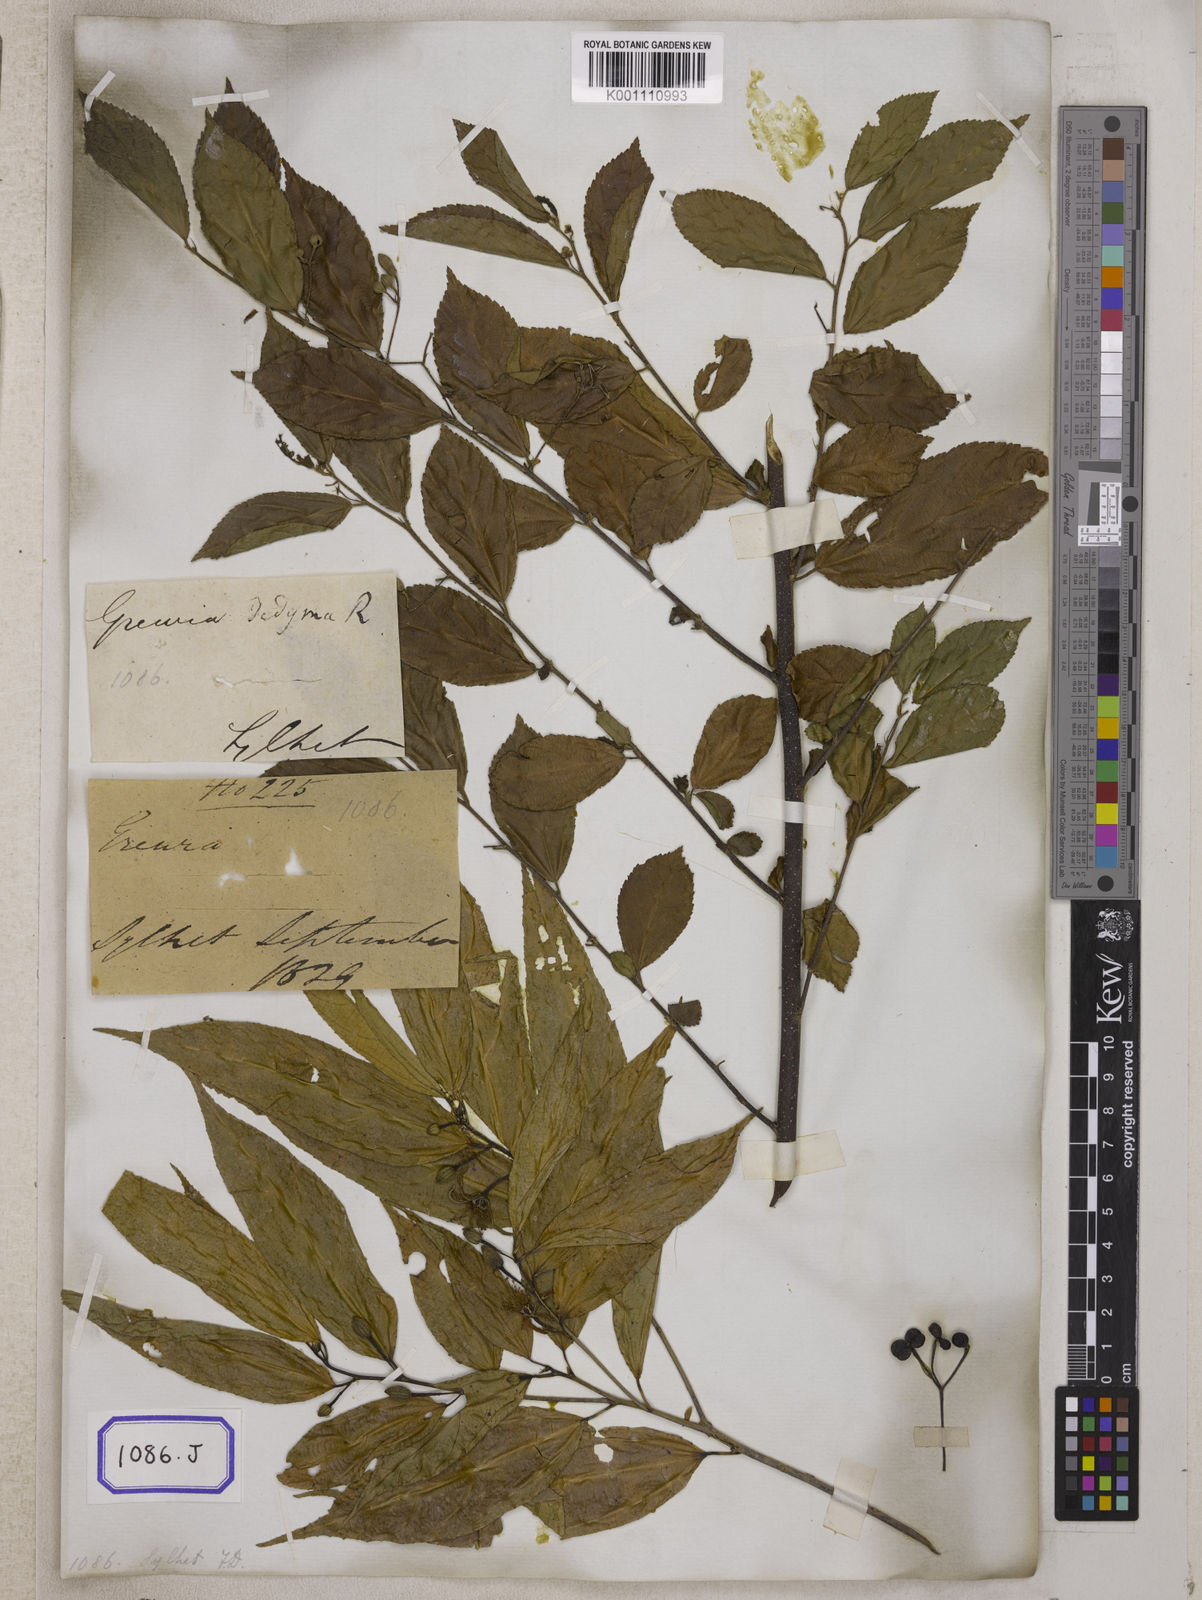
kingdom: Plantae
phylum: Tracheophyta
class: Magnoliopsida
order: Malvales
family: Malvaceae
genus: Grewia
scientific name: Grewia
